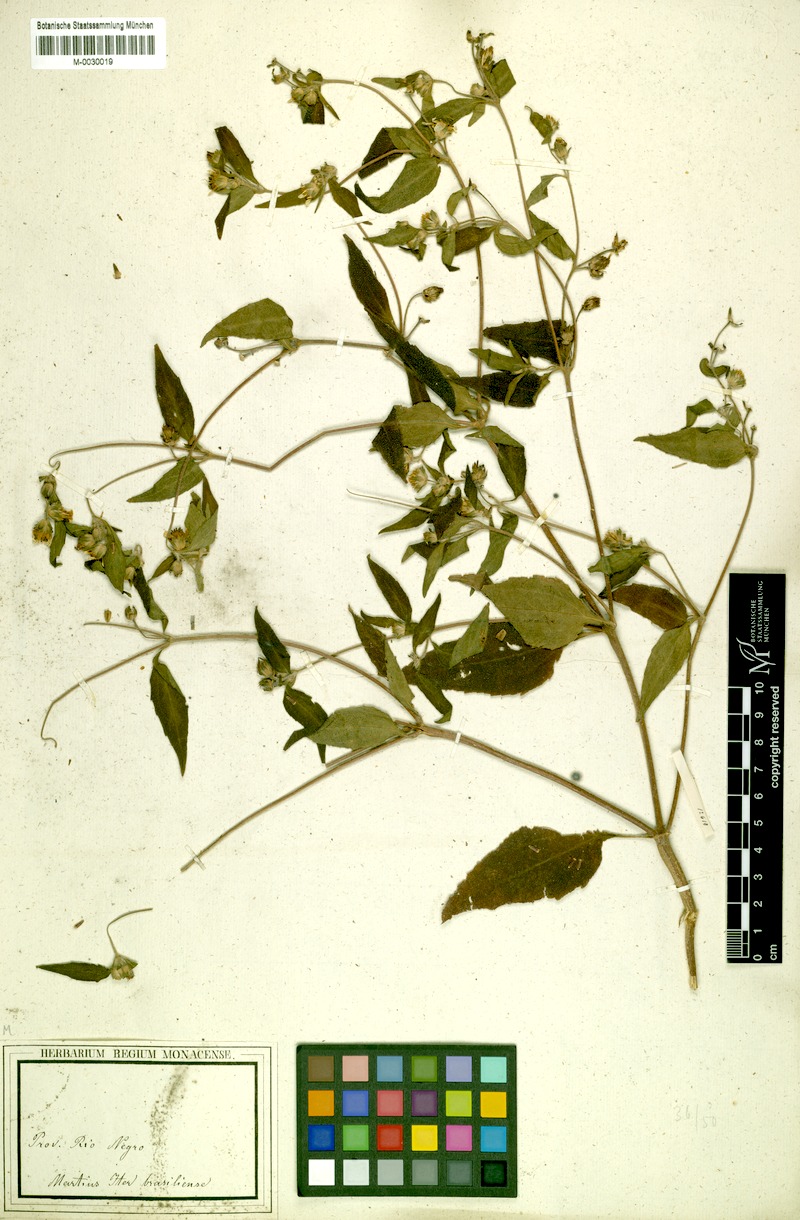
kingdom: Plantae
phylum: Tracheophyta
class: Magnoliopsida
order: Asterales
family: Asteraceae
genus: Wedelia
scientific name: Wedelia rudis
